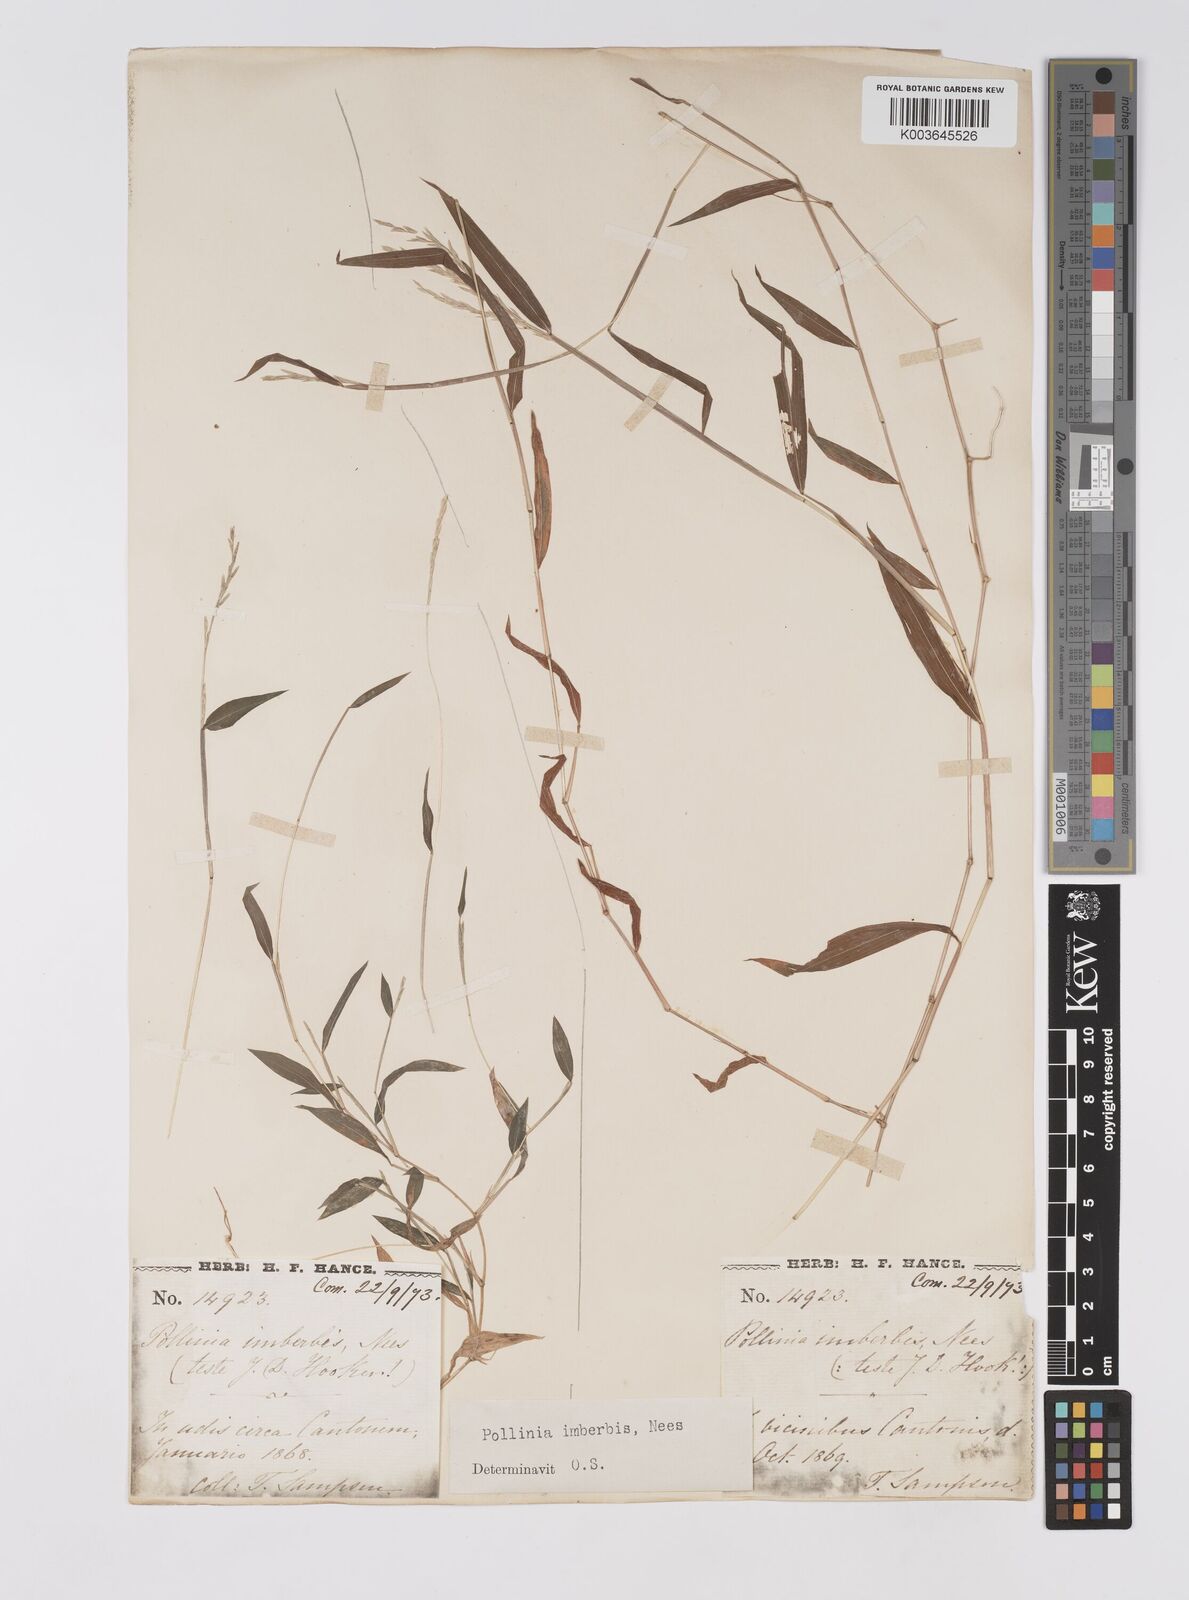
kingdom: Plantae
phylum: Tracheophyta
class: Liliopsida
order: Poales
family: Poaceae
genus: Microstegium
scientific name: Microstegium vimineum
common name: Japanese stiltgrass
